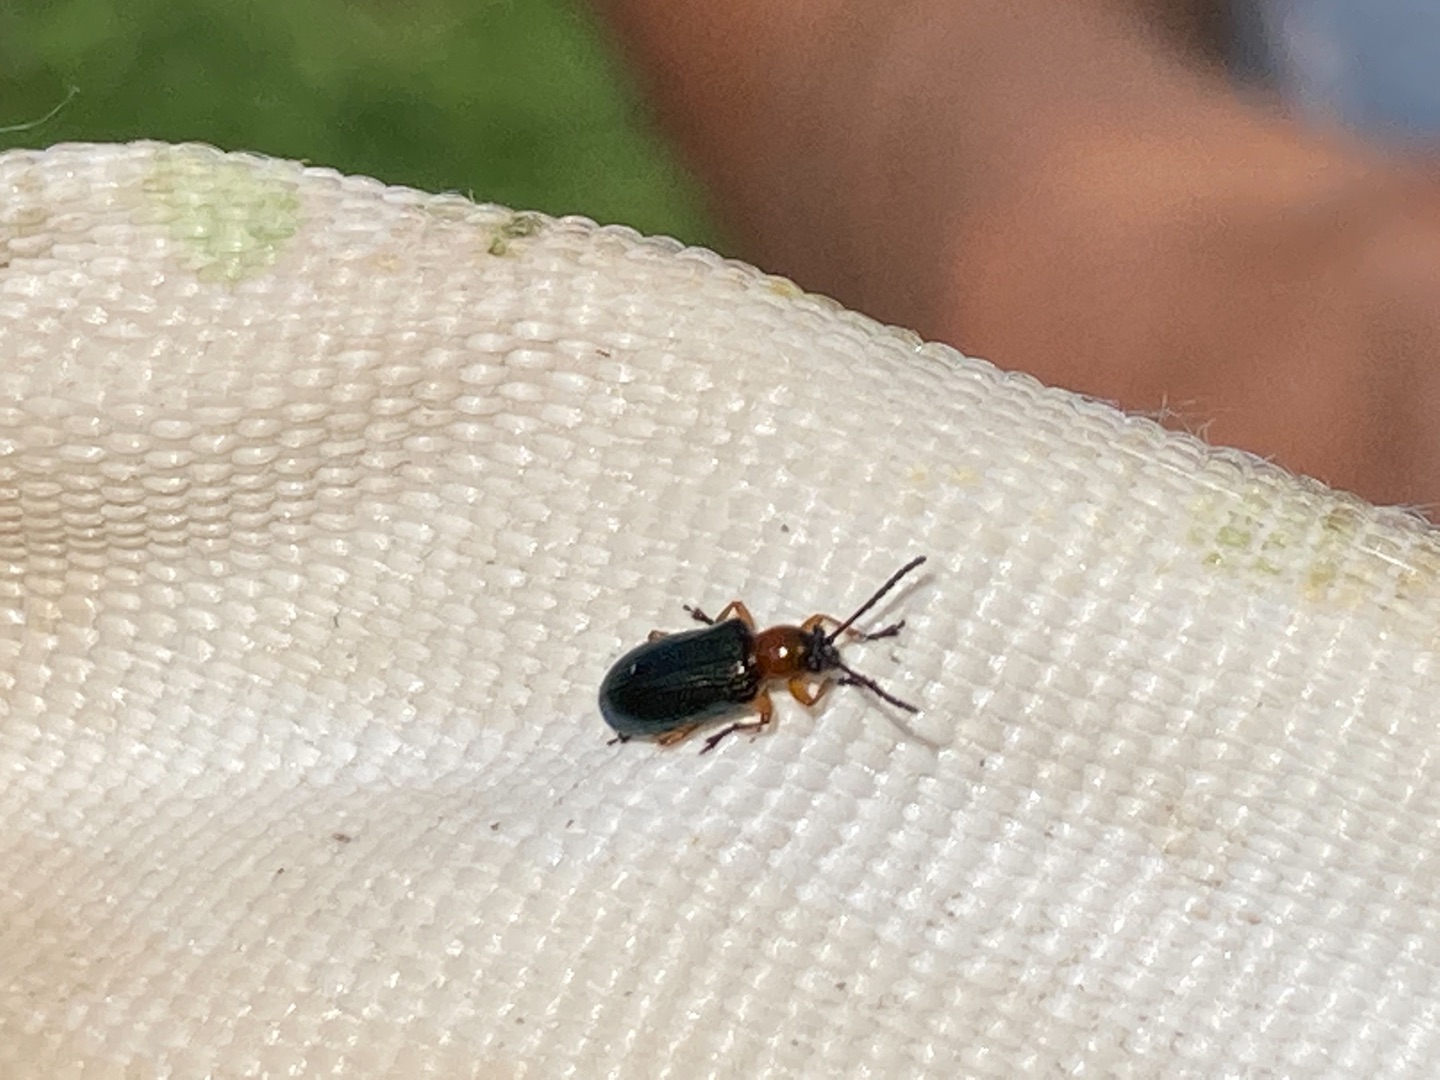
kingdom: Animalia
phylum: Arthropoda
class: Insecta
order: Coleoptera
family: Chrysomelidae
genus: Oulema
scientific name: Oulema
